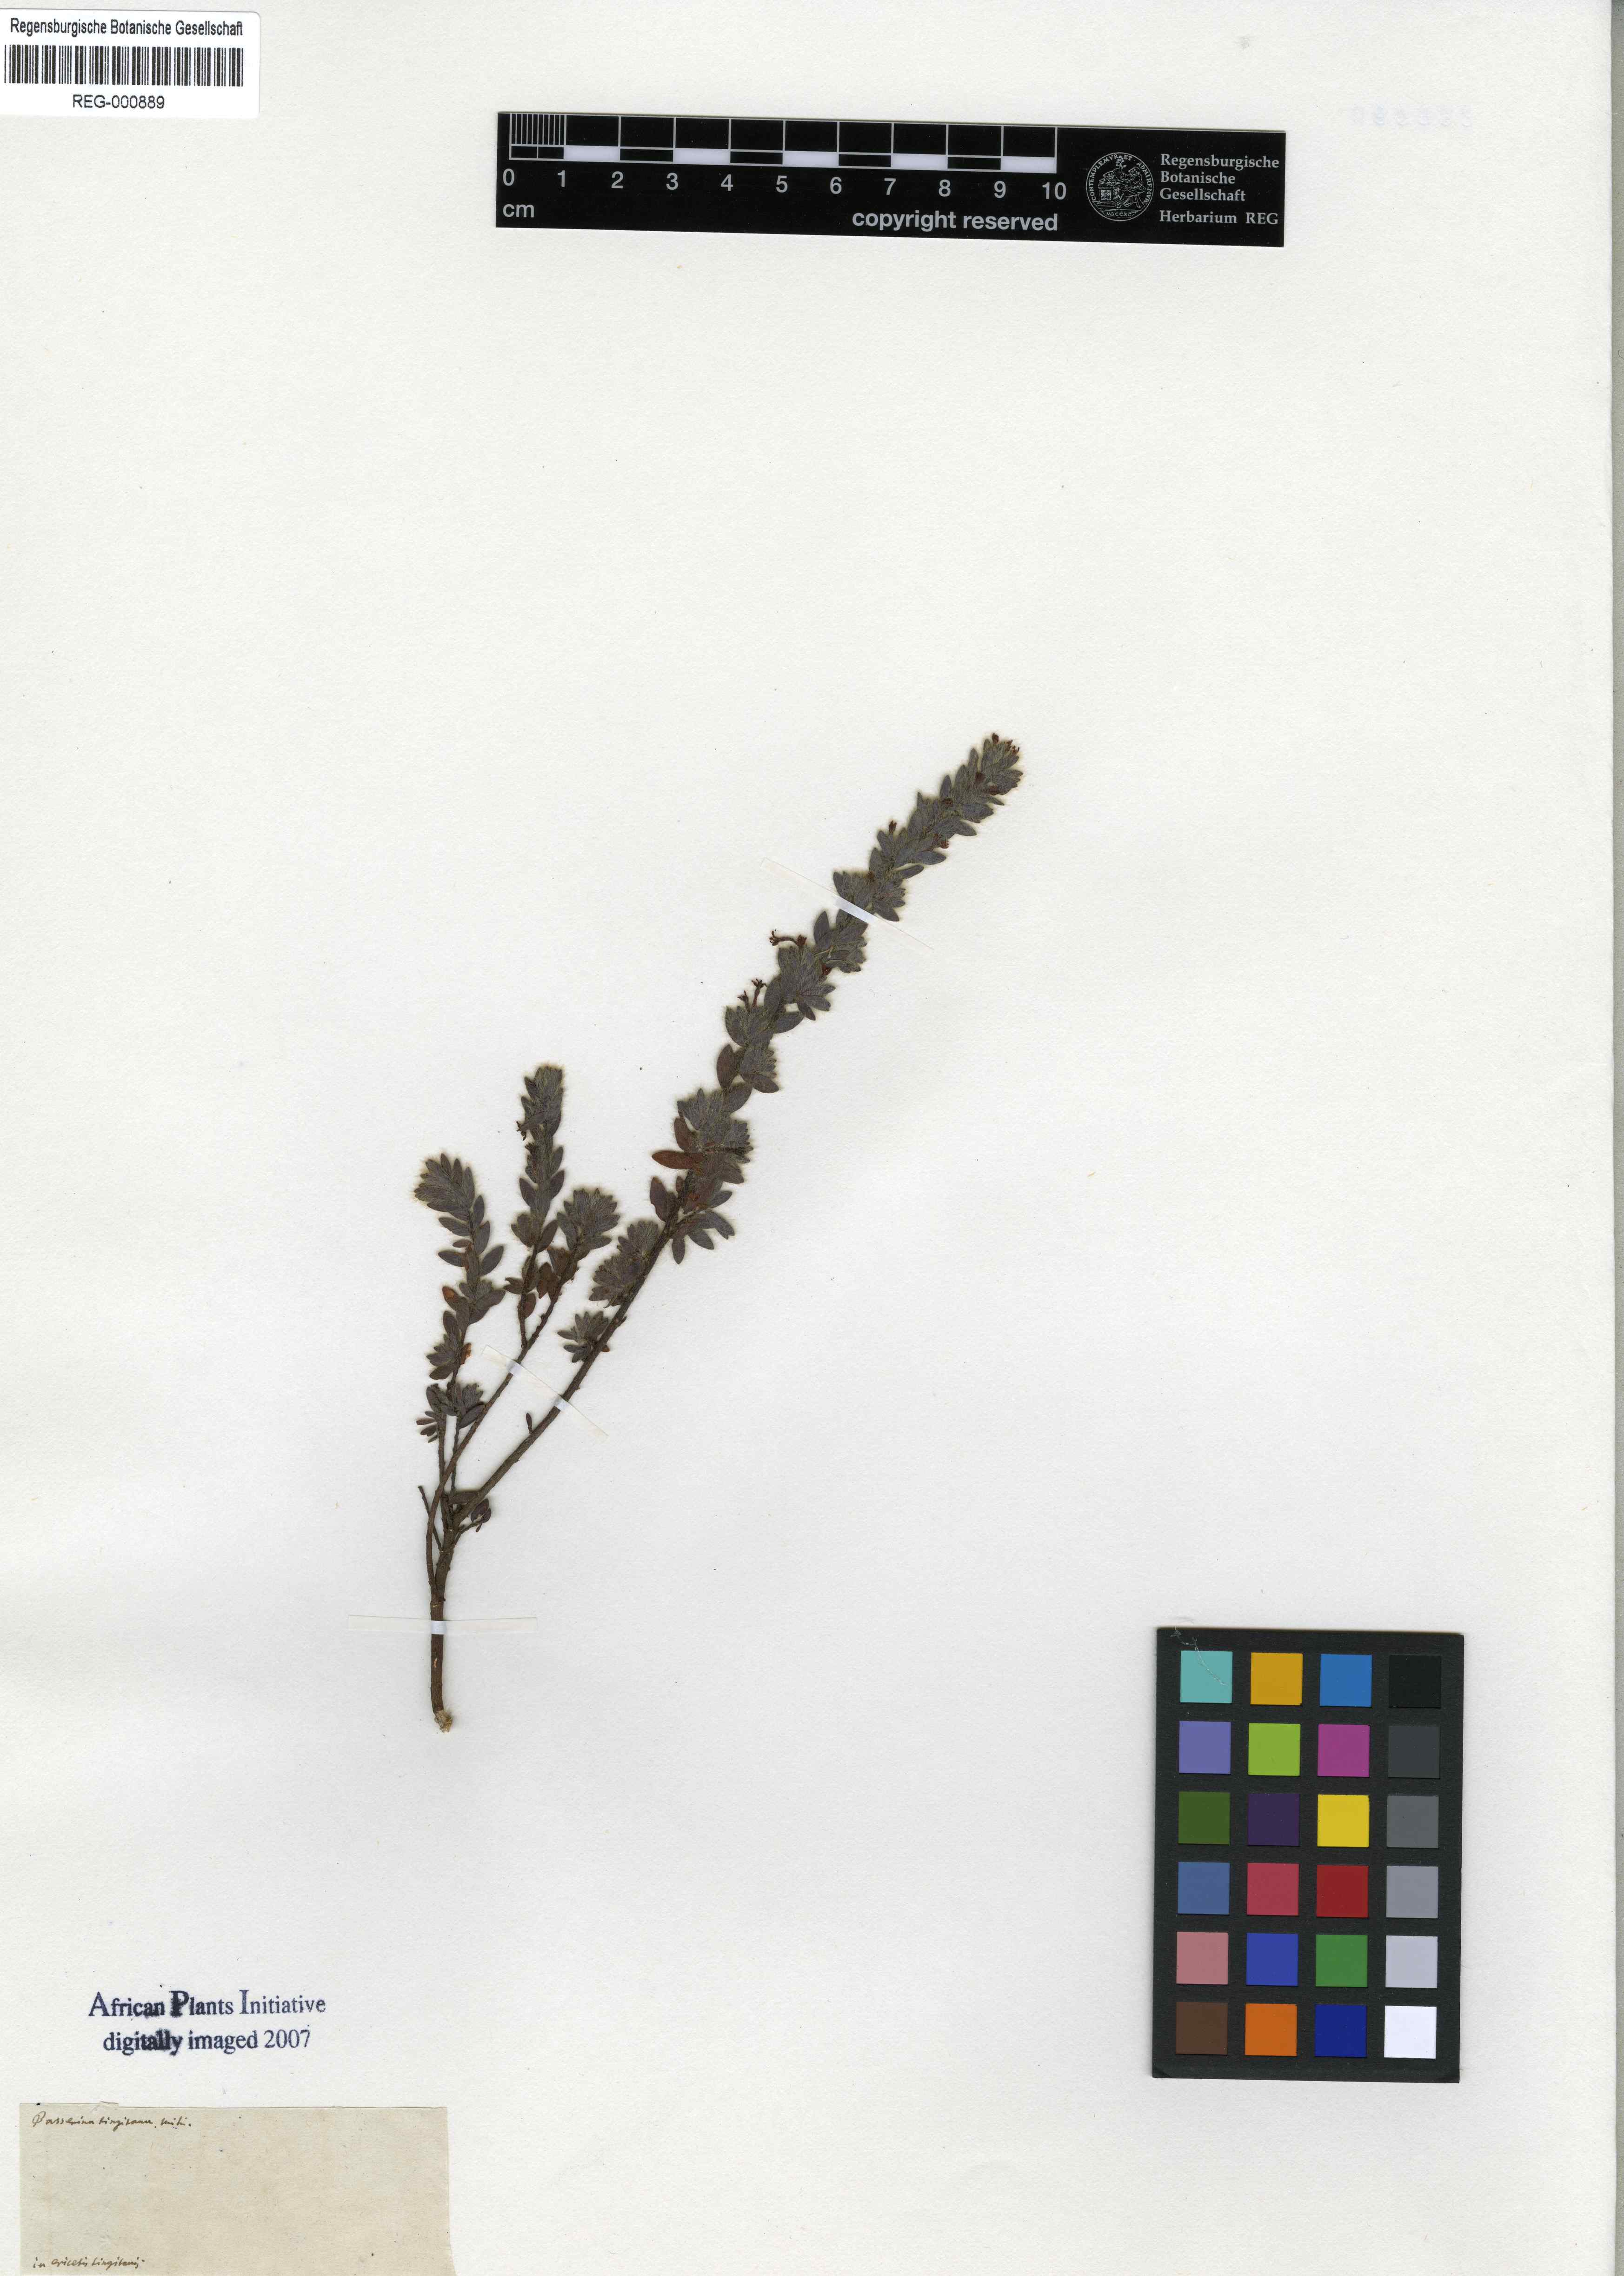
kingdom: Plantae
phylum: Tracheophyta
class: Magnoliopsida
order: Malvales
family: Thymelaeaceae
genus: Thymelaea
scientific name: Thymelaea villosa
